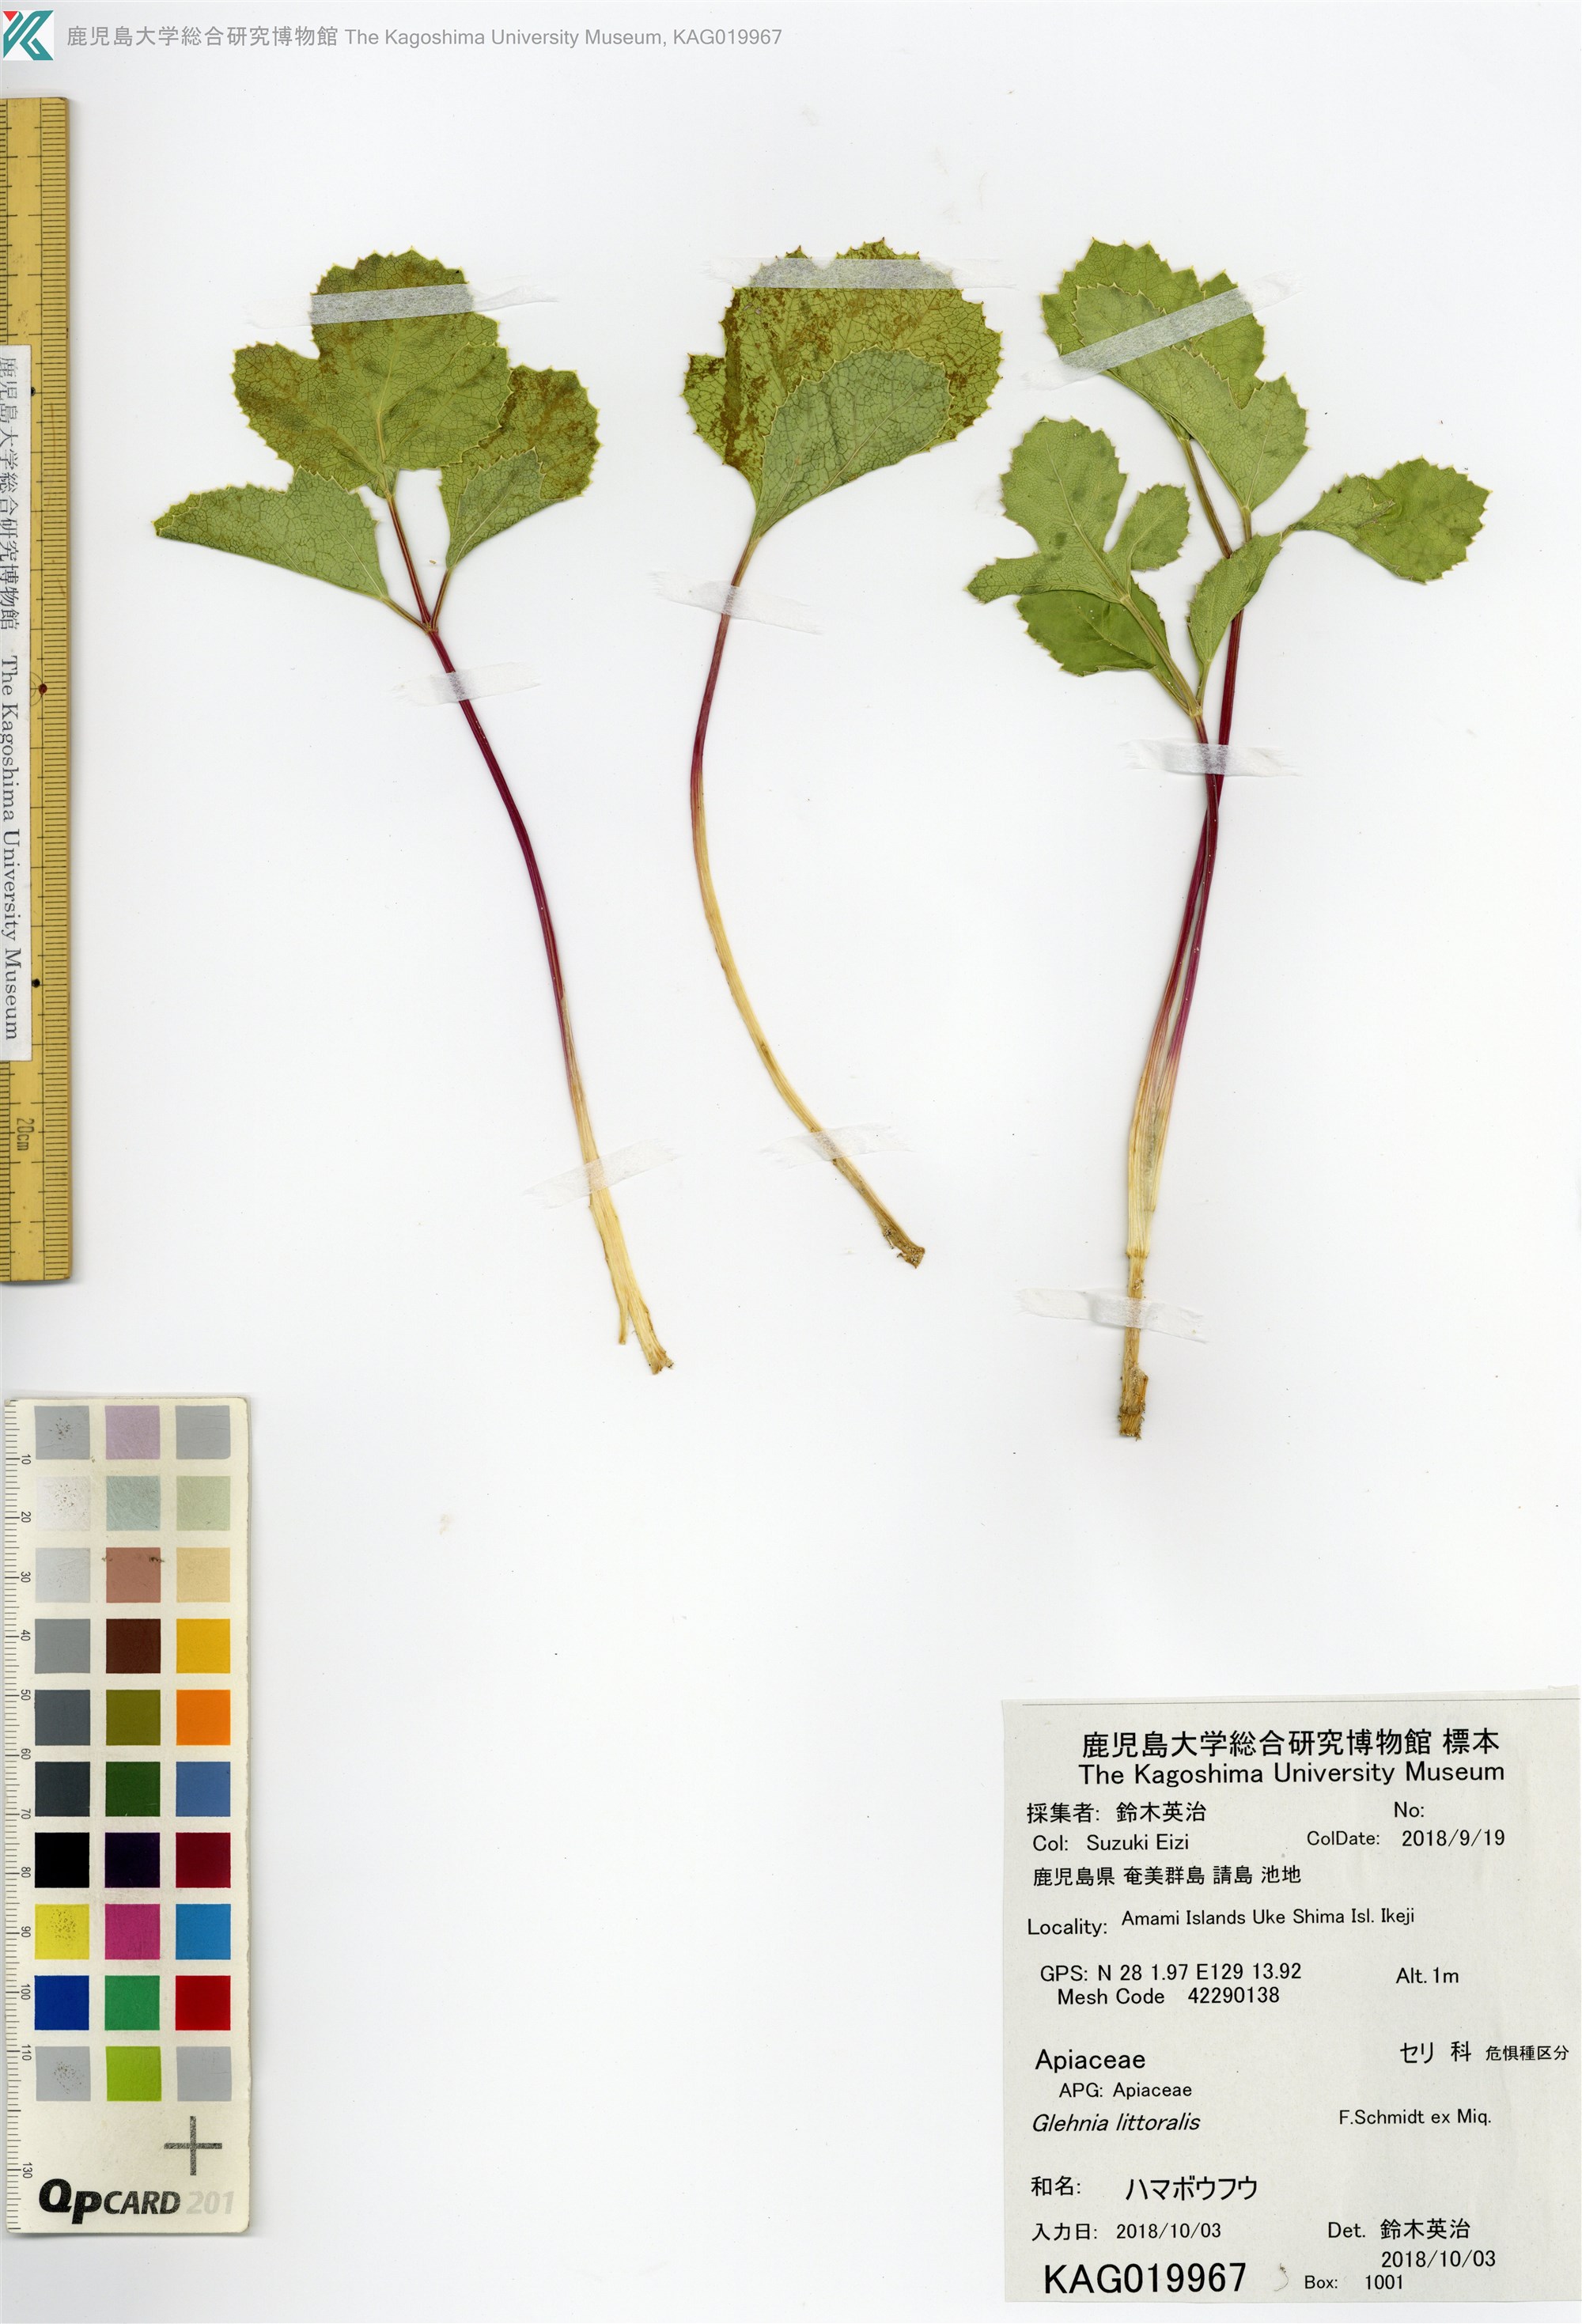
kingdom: Plantae
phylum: Tracheophyta
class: Magnoliopsida
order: Apiales
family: Apiaceae
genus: Glehnia
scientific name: Glehnia littoralis
